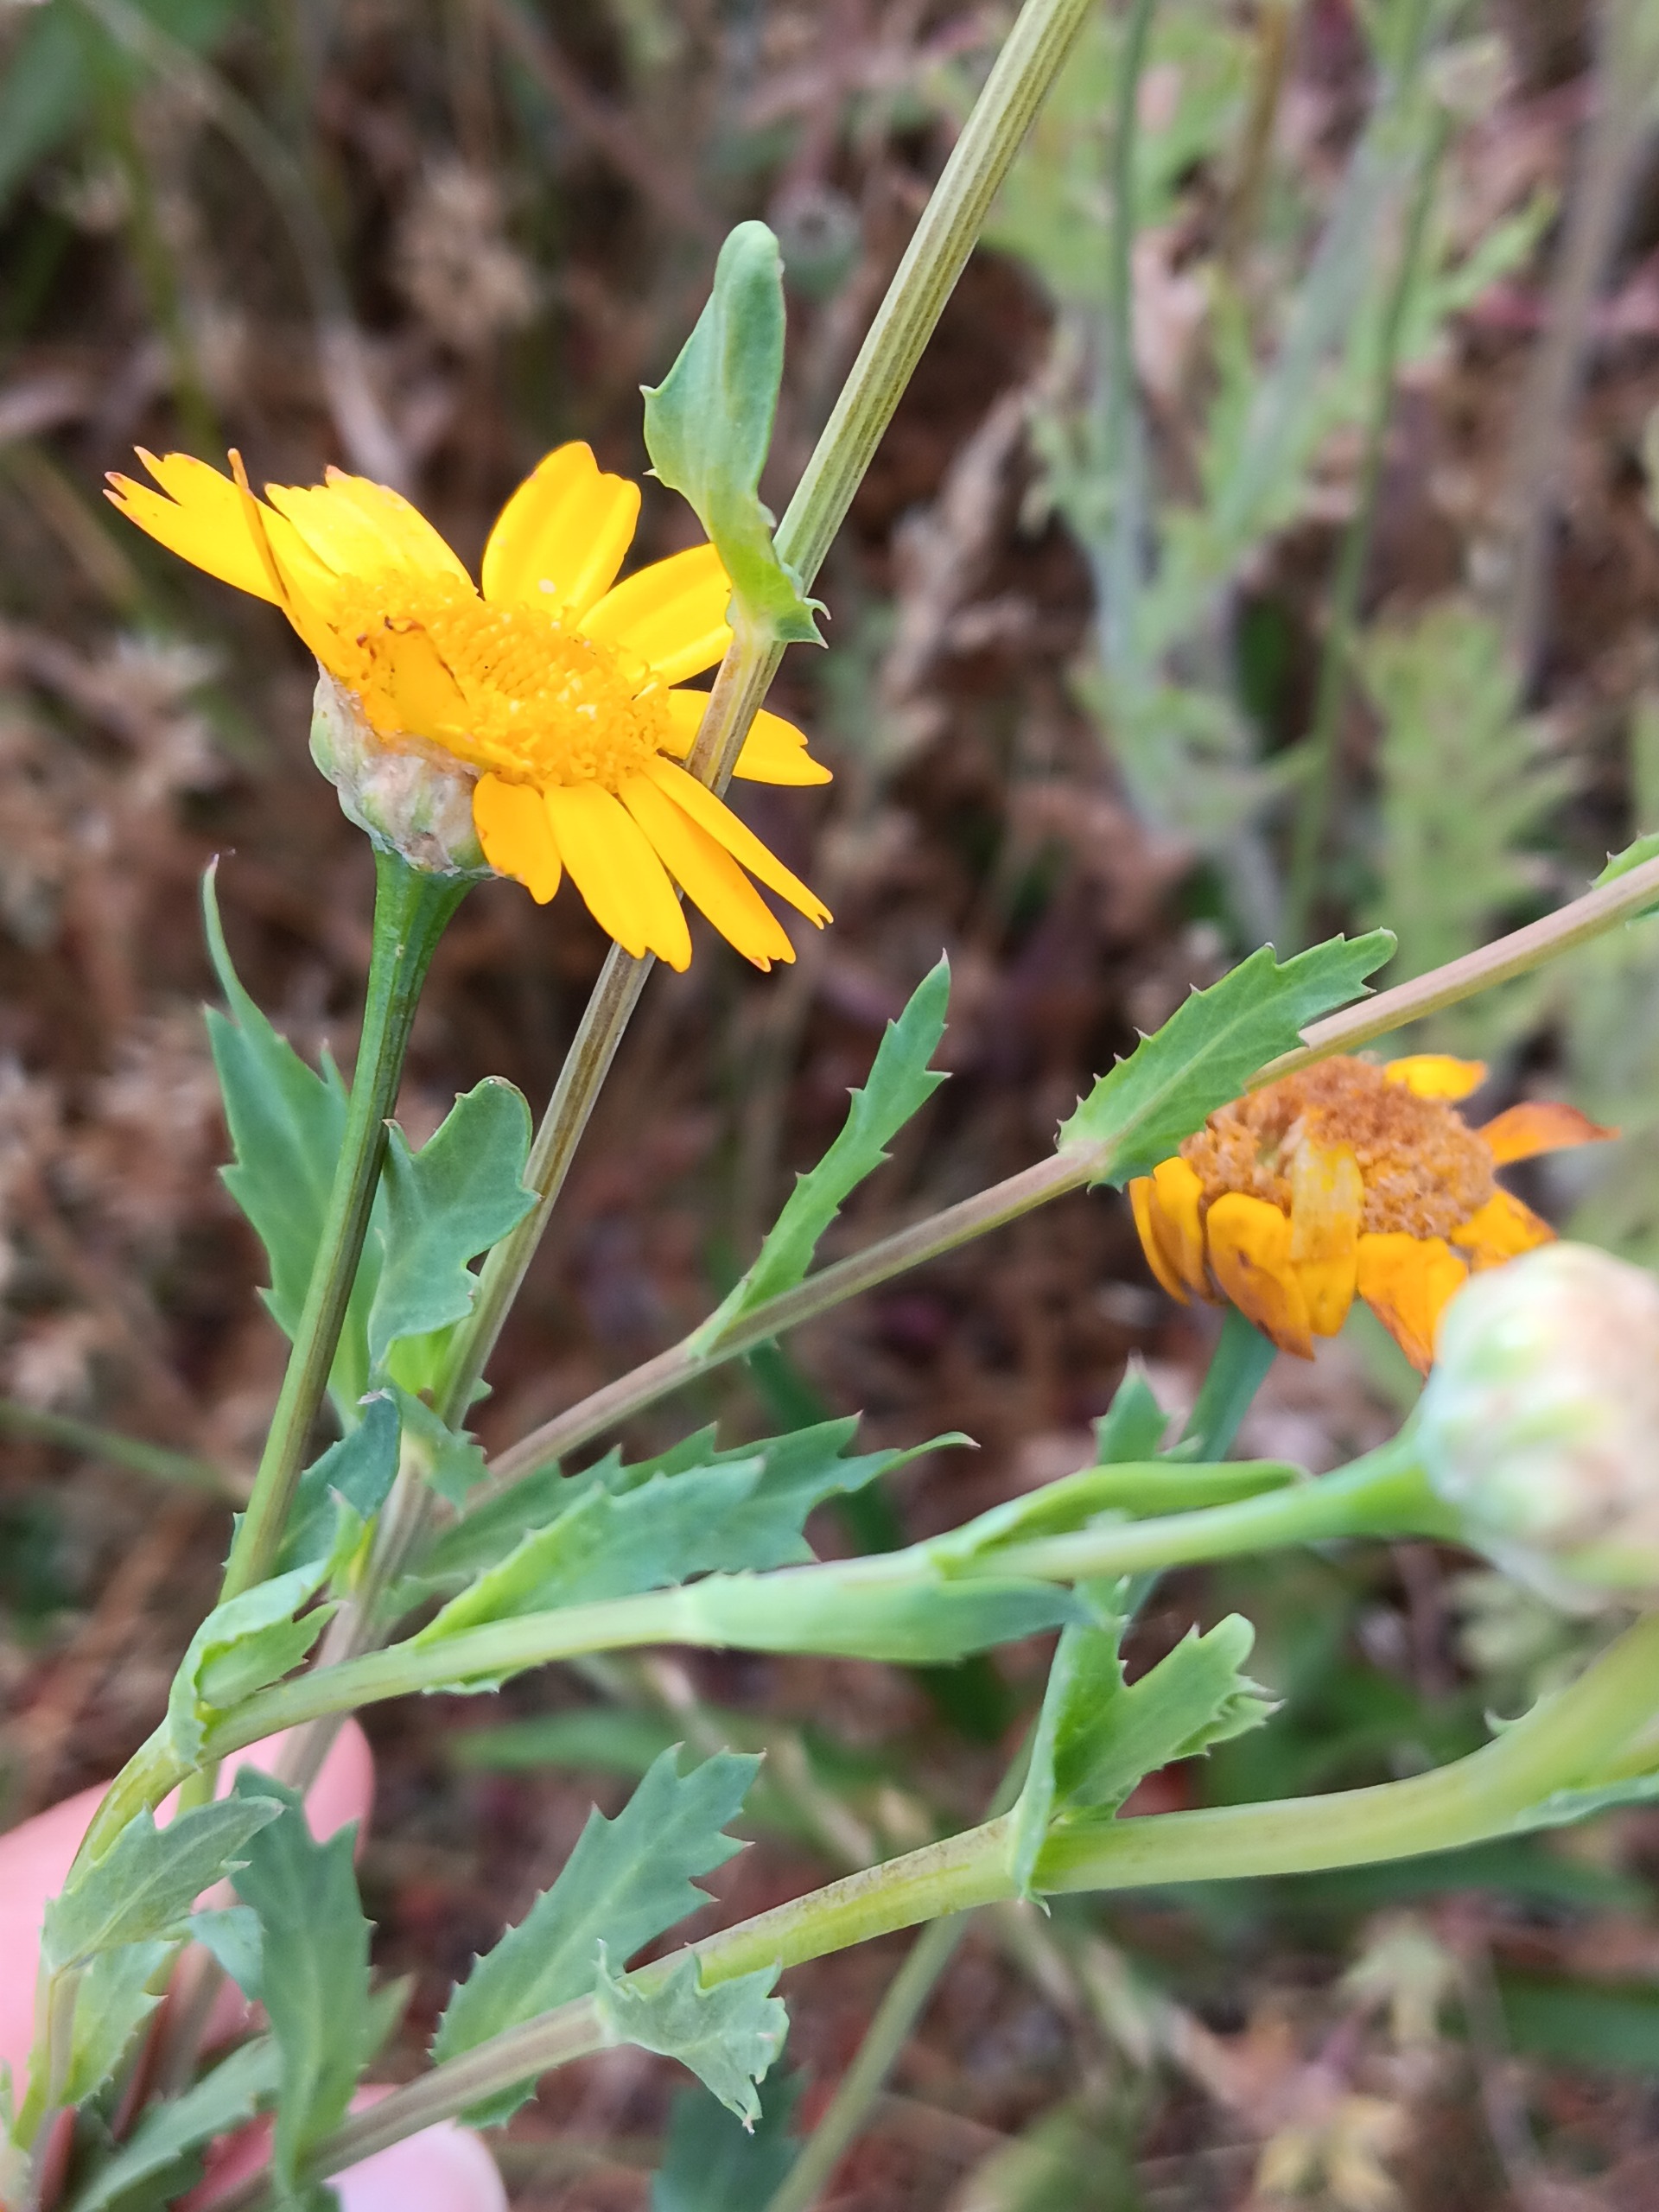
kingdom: Plantae
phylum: Tracheophyta
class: Magnoliopsida
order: Asterales
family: Asteraceae
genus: Glebionis
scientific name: Glebionis segetum
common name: Gul okseøje
